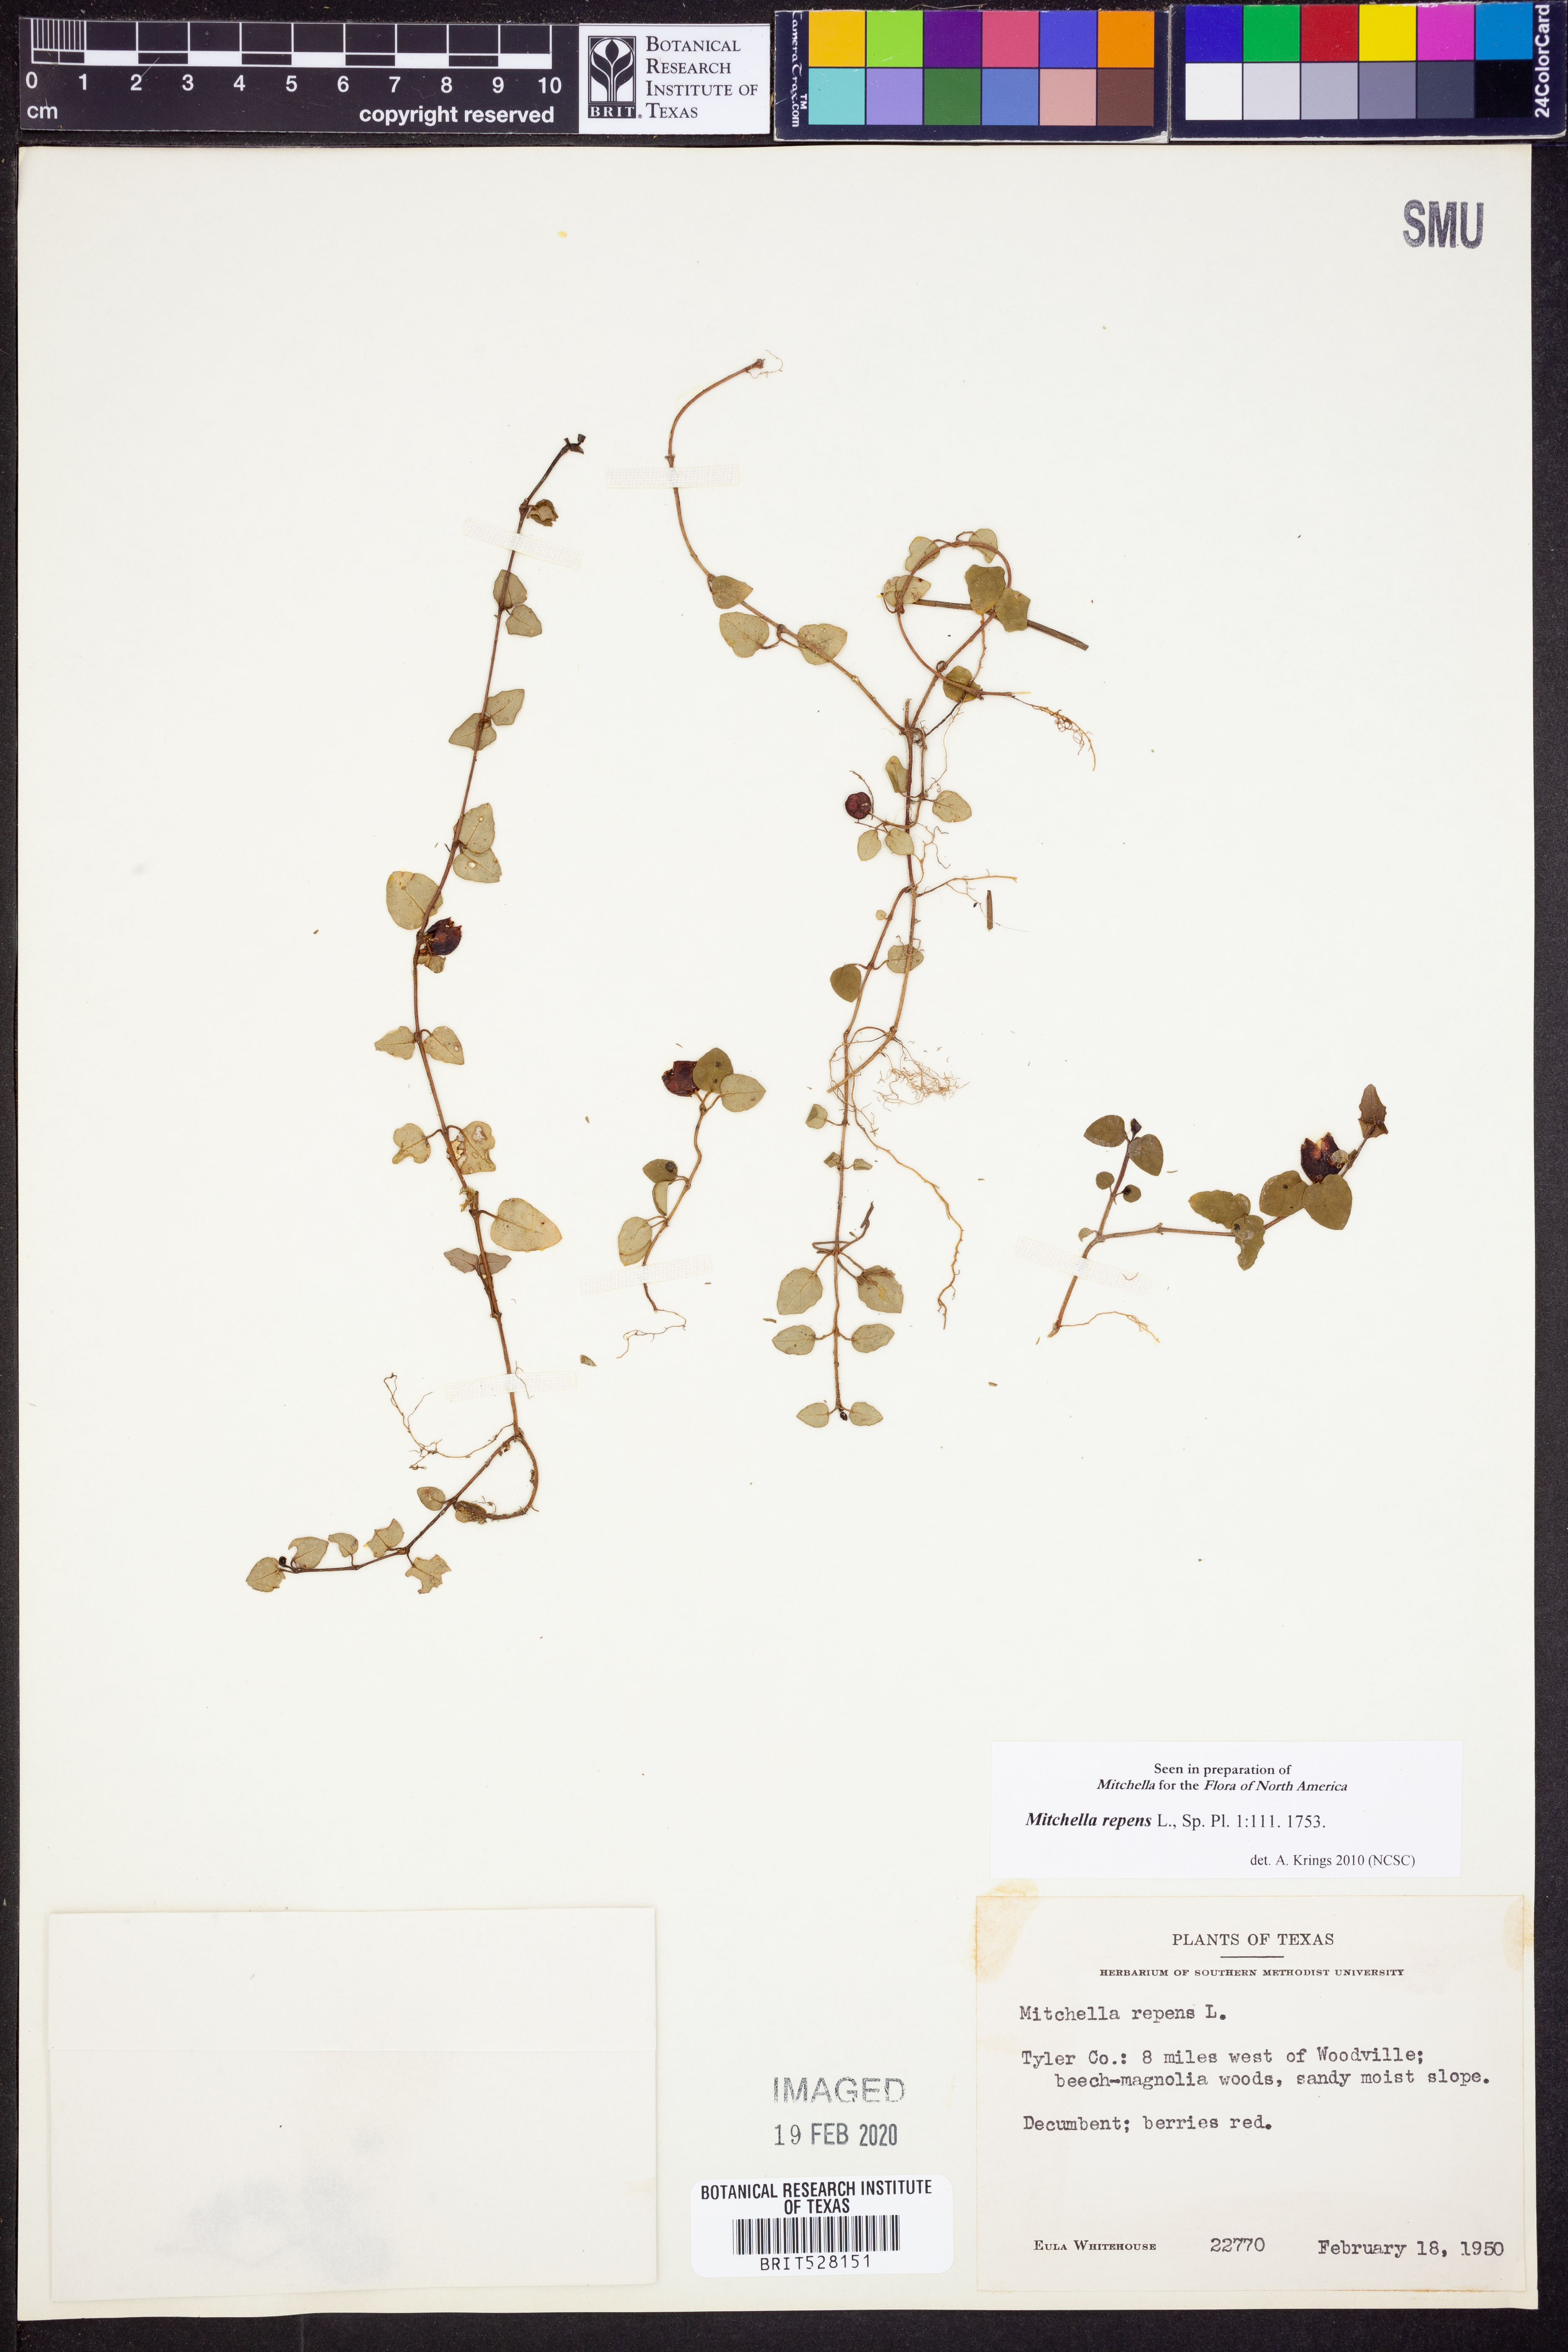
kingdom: Plantae
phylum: Tracheophyta
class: Magnoliopsida
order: Gentianales
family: Rubiaceae
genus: Mitchella
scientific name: Mitchella repens
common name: Partridge-berry
